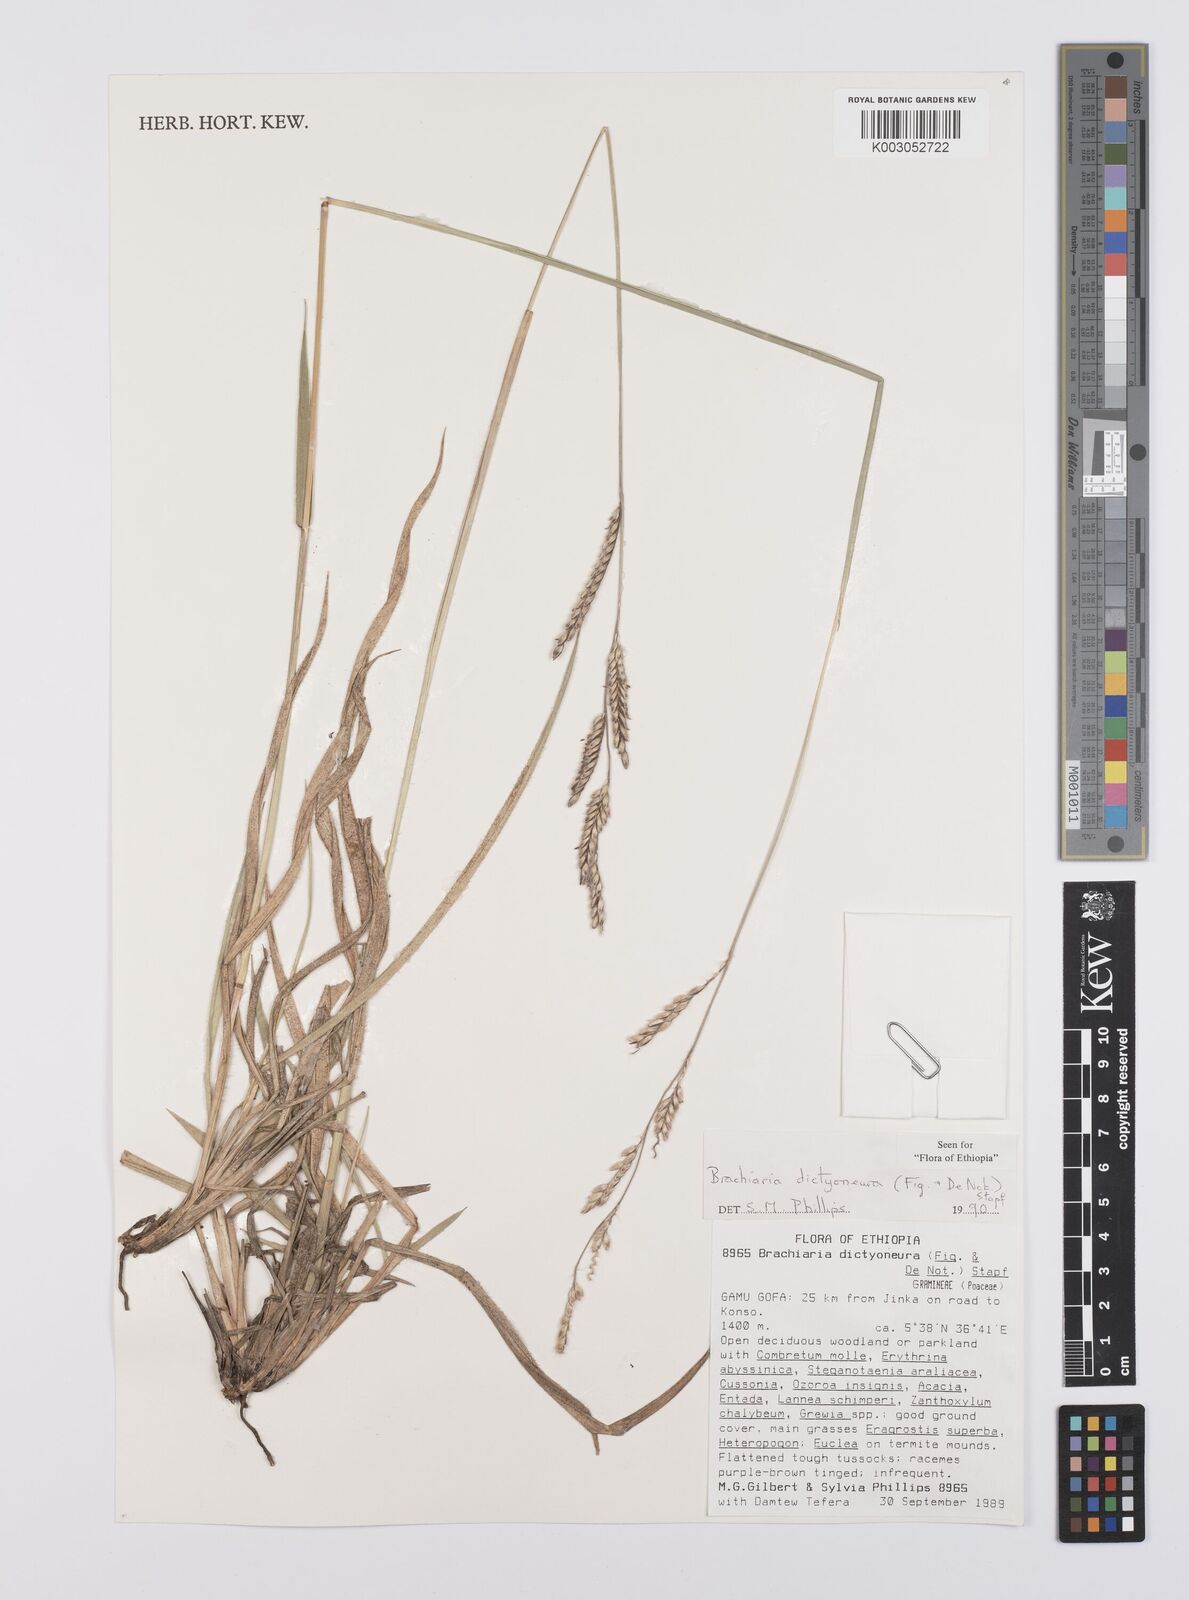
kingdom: Plantae
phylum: Tracheophyta
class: Liliopsida
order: Poales
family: Poaceae
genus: Urochloa
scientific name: Urochloa dictyoneura
